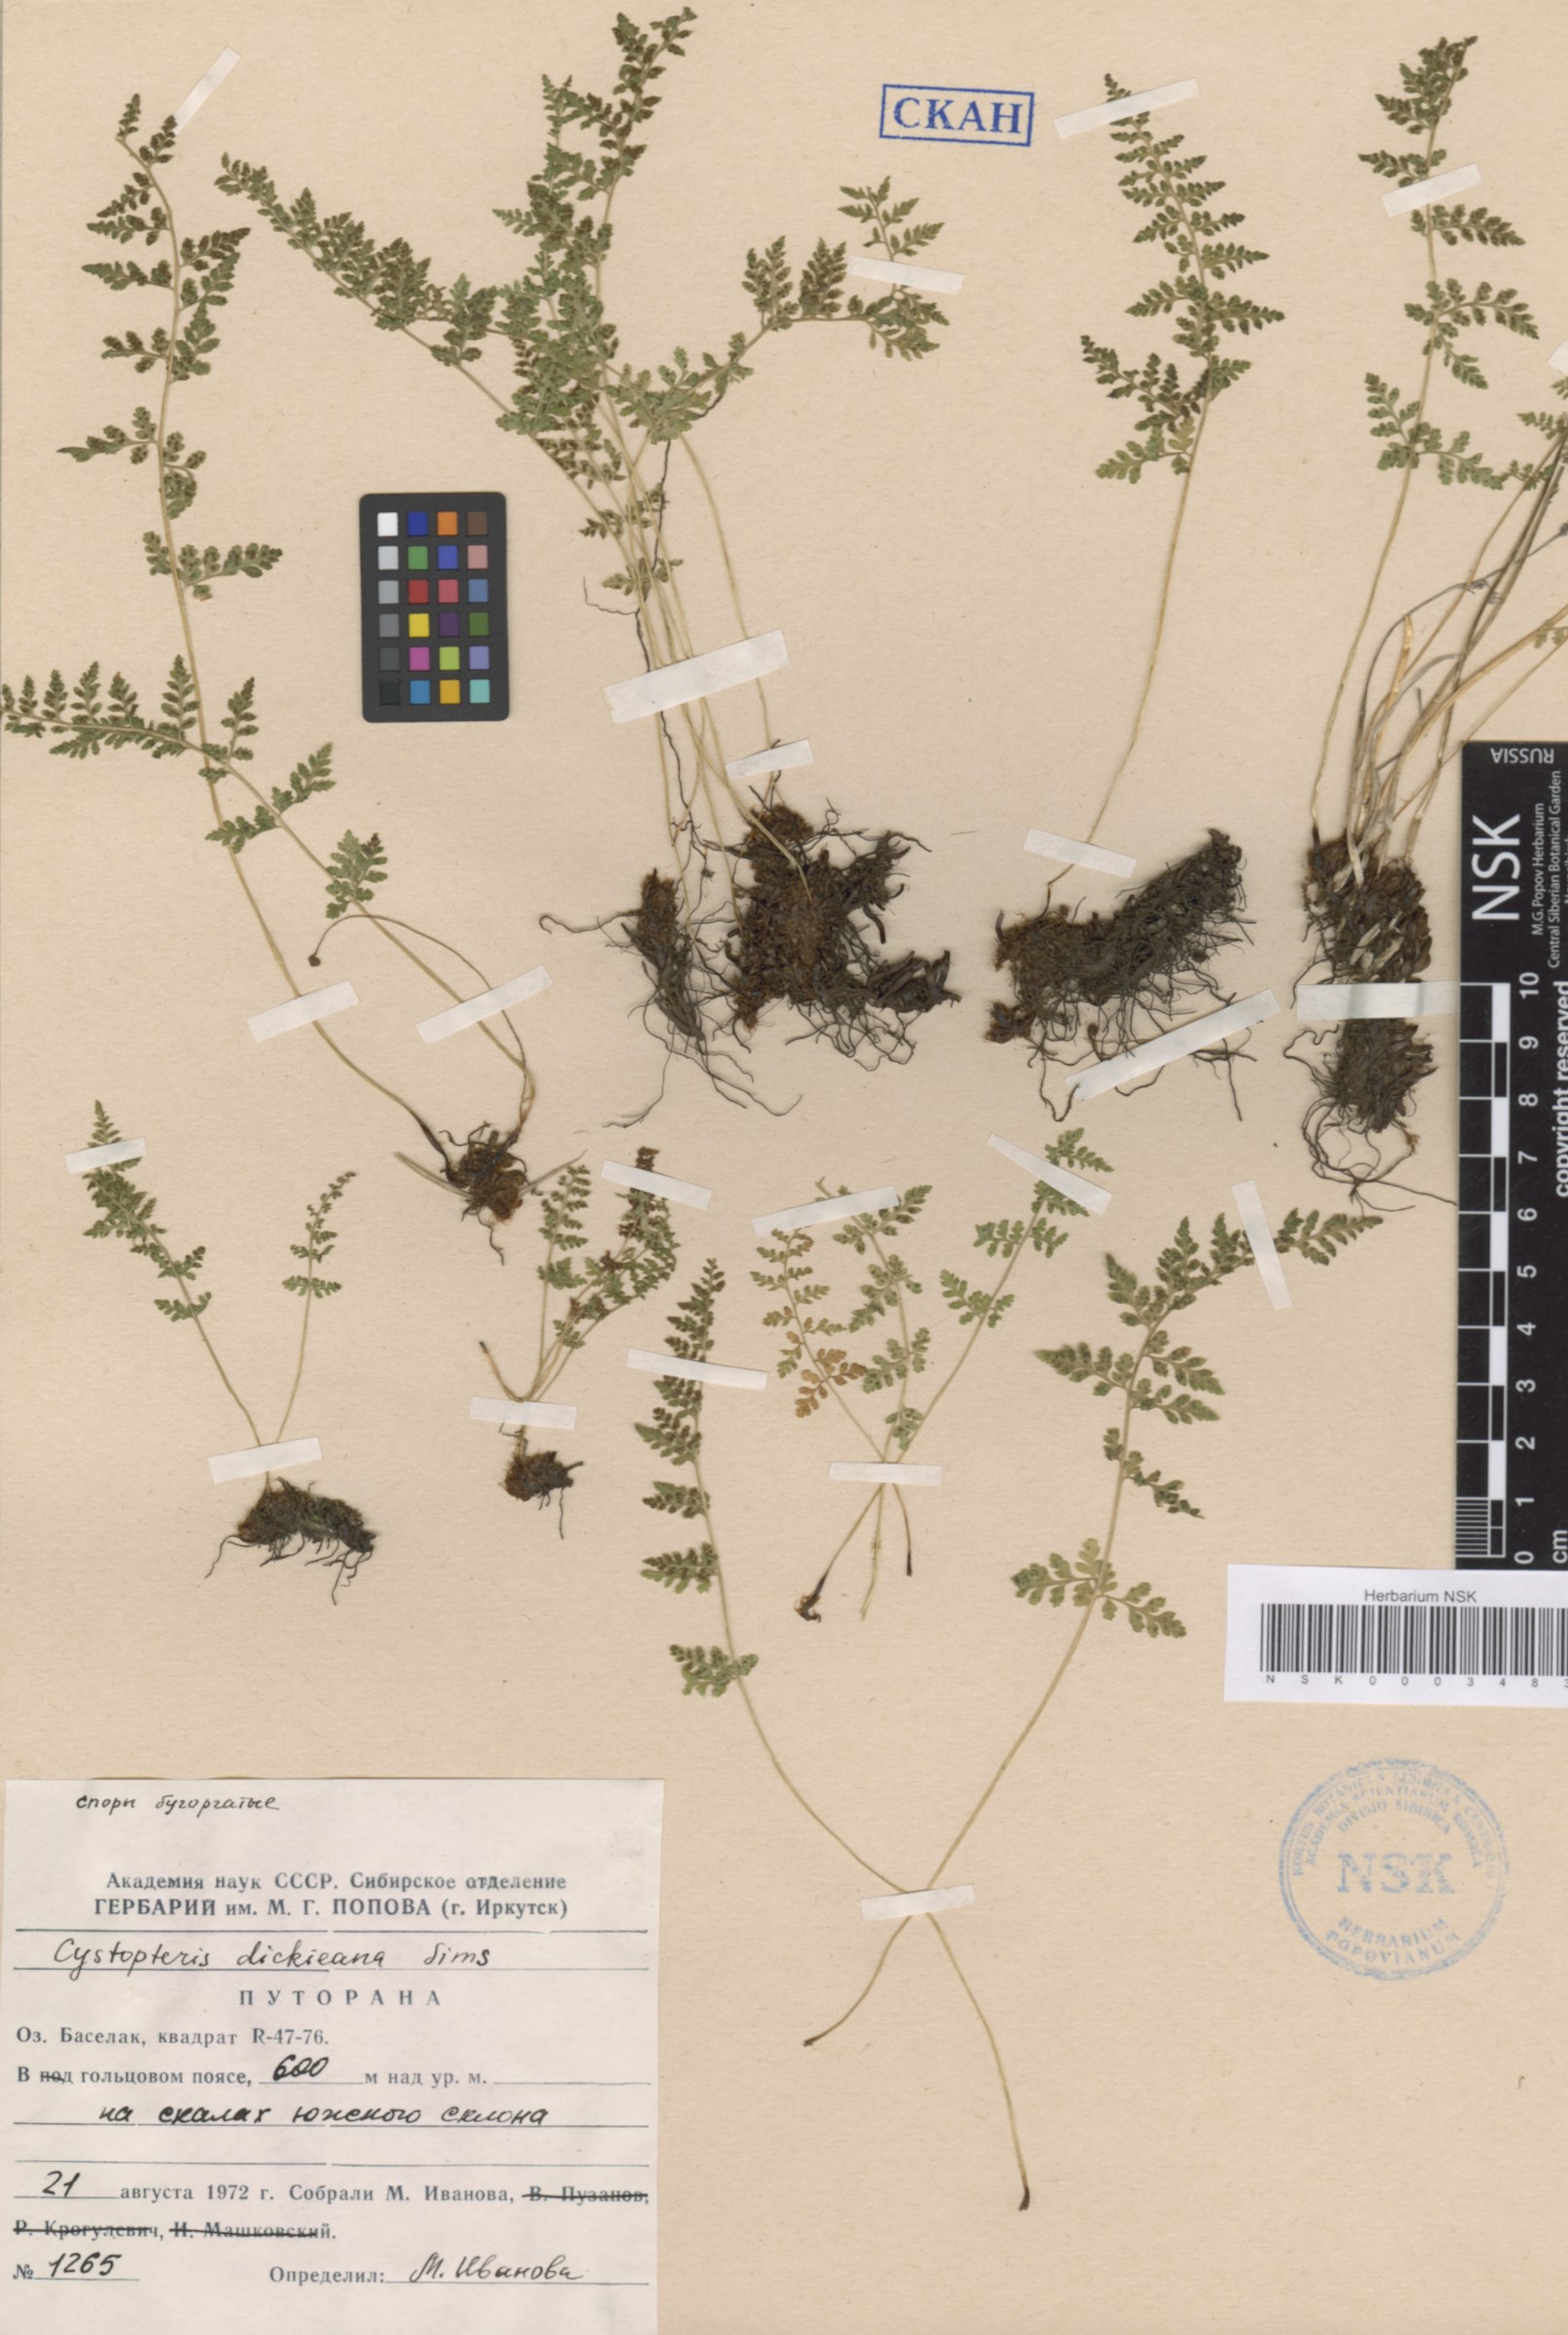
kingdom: Plantae
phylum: Tracheophyta
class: Polypodiopsida
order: Polypodiales
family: Cystopteridaceae
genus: Cystopteris
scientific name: Cystopteris dickieana
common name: Dickie's bladder-fern
